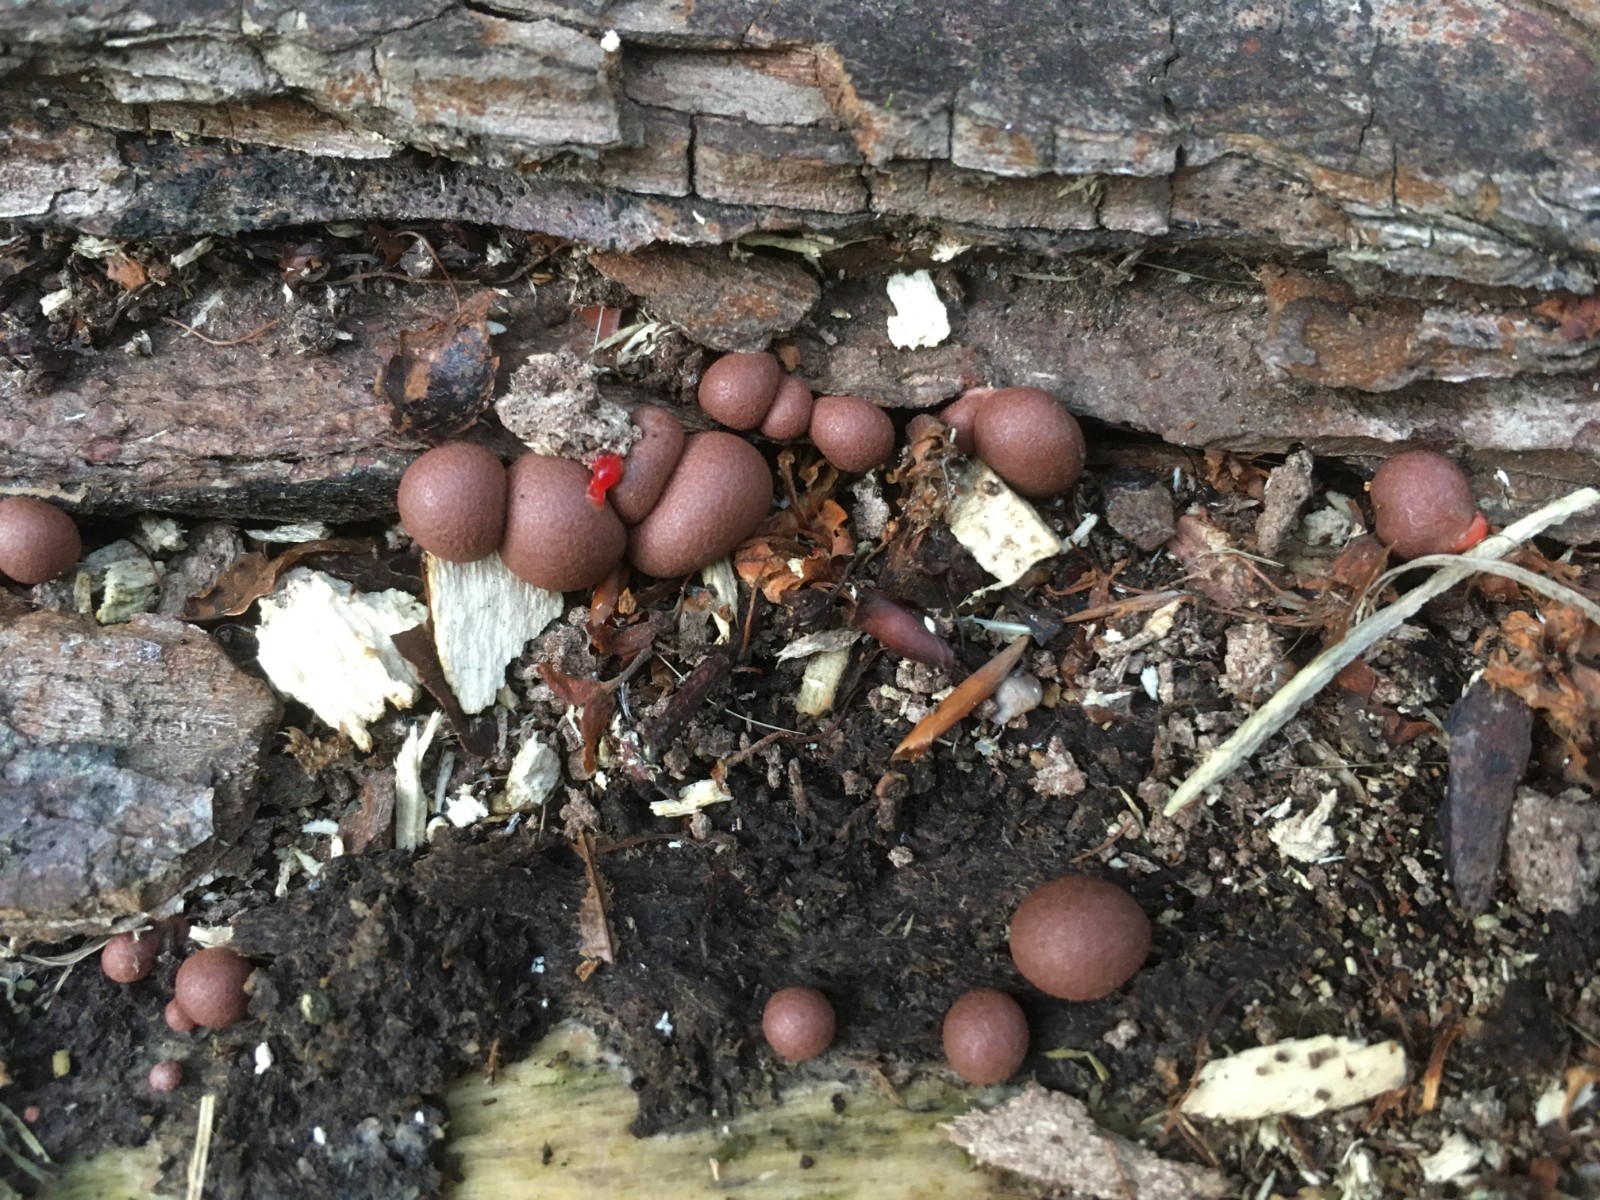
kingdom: Protozoa
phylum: Mycetozoa
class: Myxomycetes
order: Cribrariales
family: Tubiferaceae
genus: Lycogala
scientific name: Lycogala epidendrum
